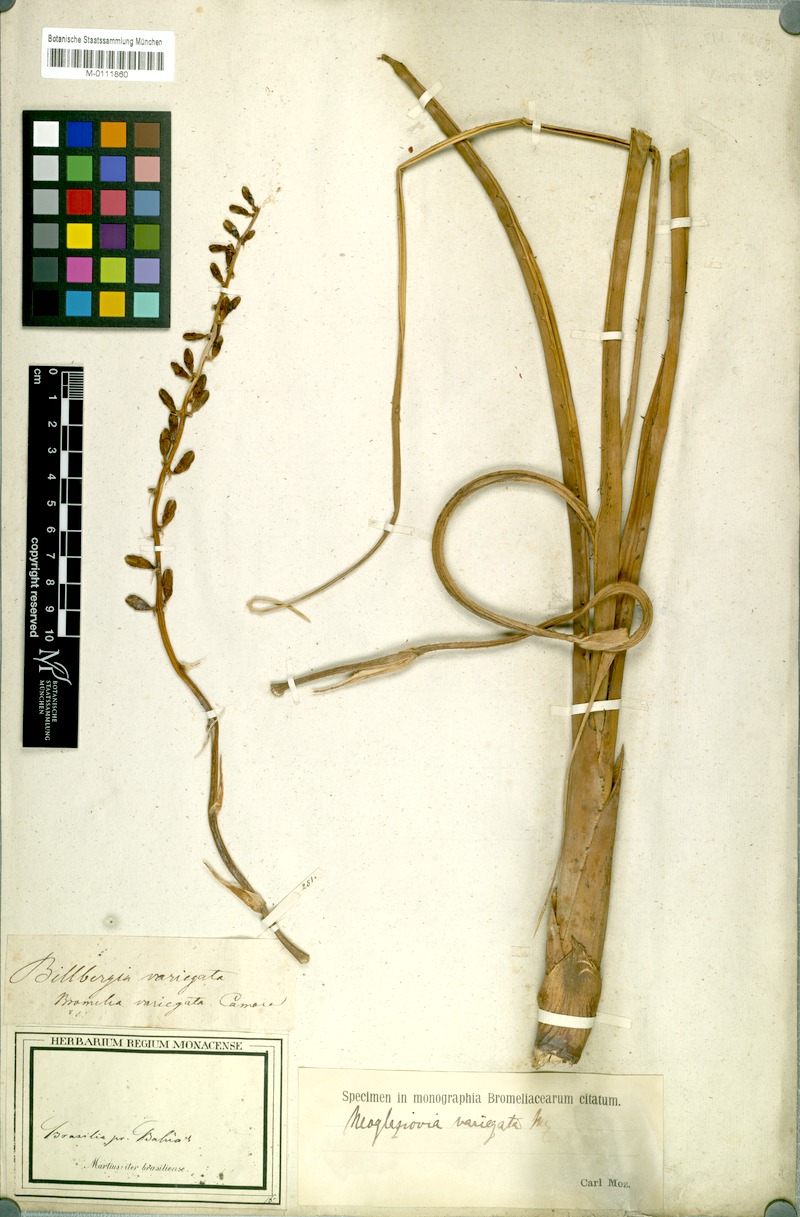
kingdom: Plantae
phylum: Tracheophyta
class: Liliopsida
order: Poales
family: Bromeliaceae
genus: Neoglaziovia
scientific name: Neoglaziovia variegata
